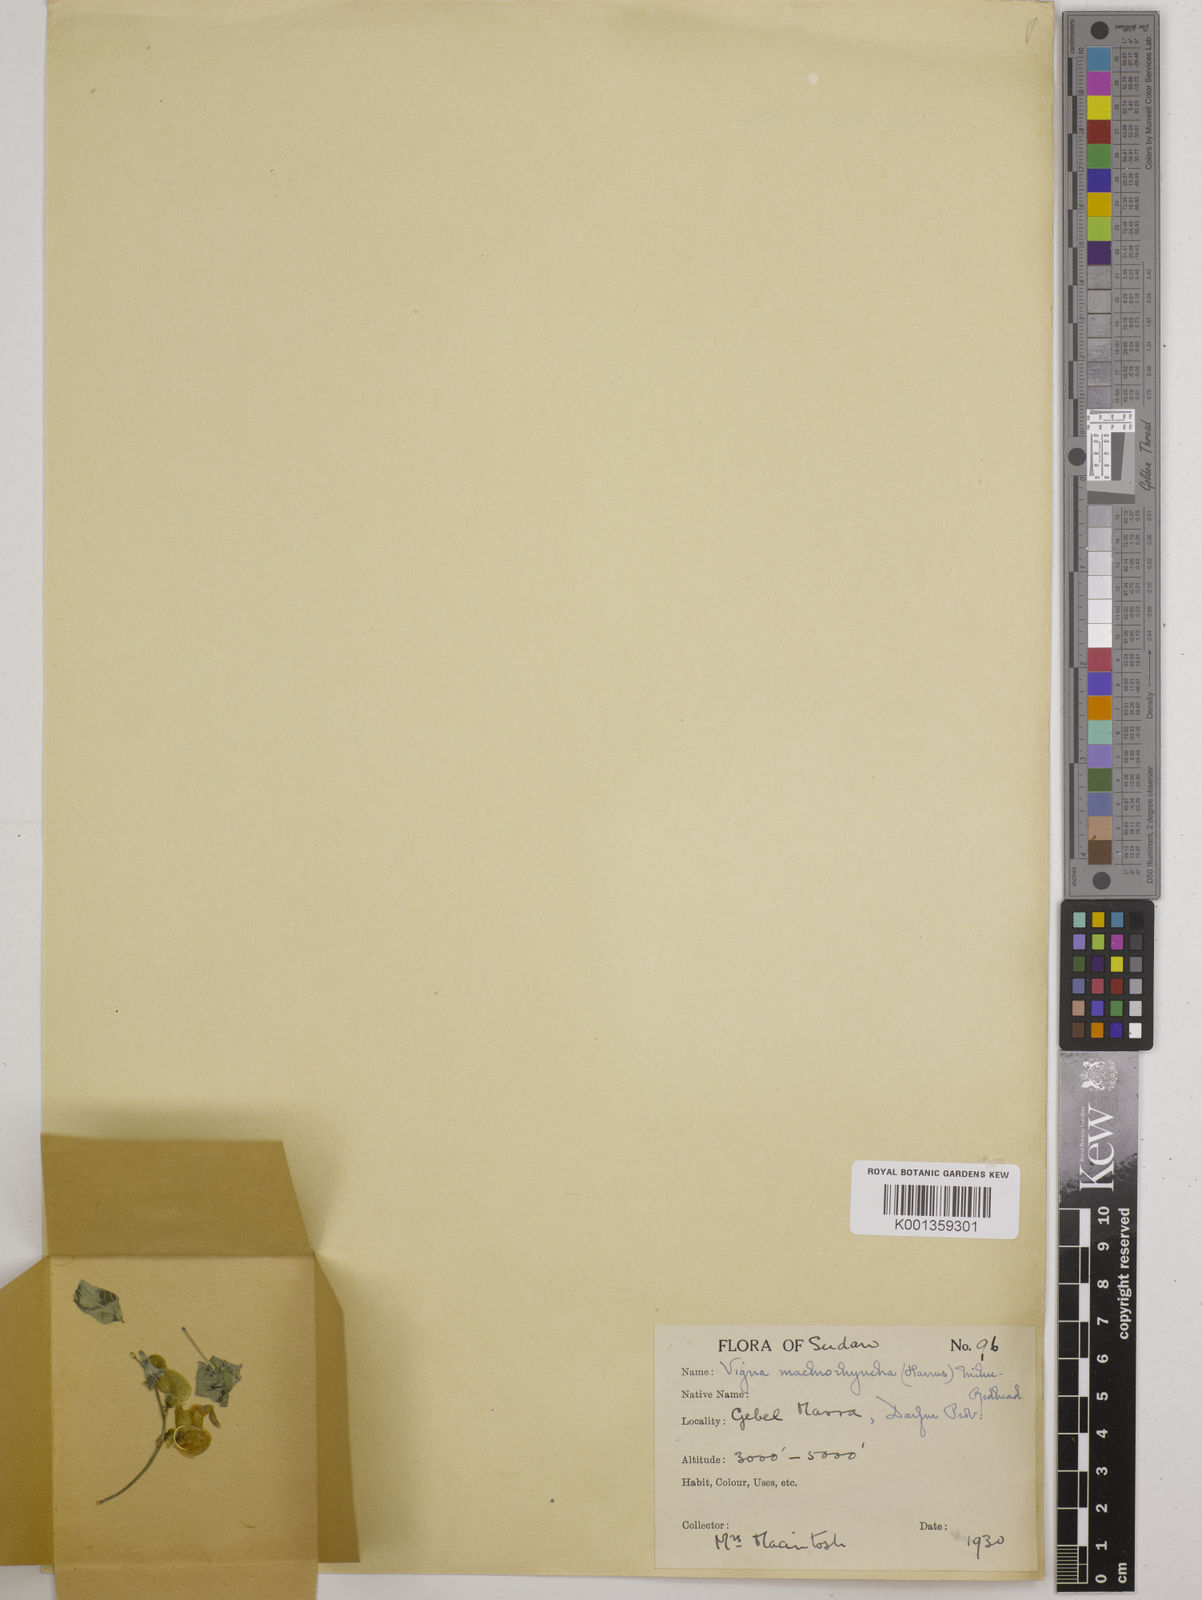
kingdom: Plantae
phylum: Tracheophyta
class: Magnoliopsida
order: Fabales
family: Fabaceae
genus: Wajira
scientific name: Wajira grahamiana
